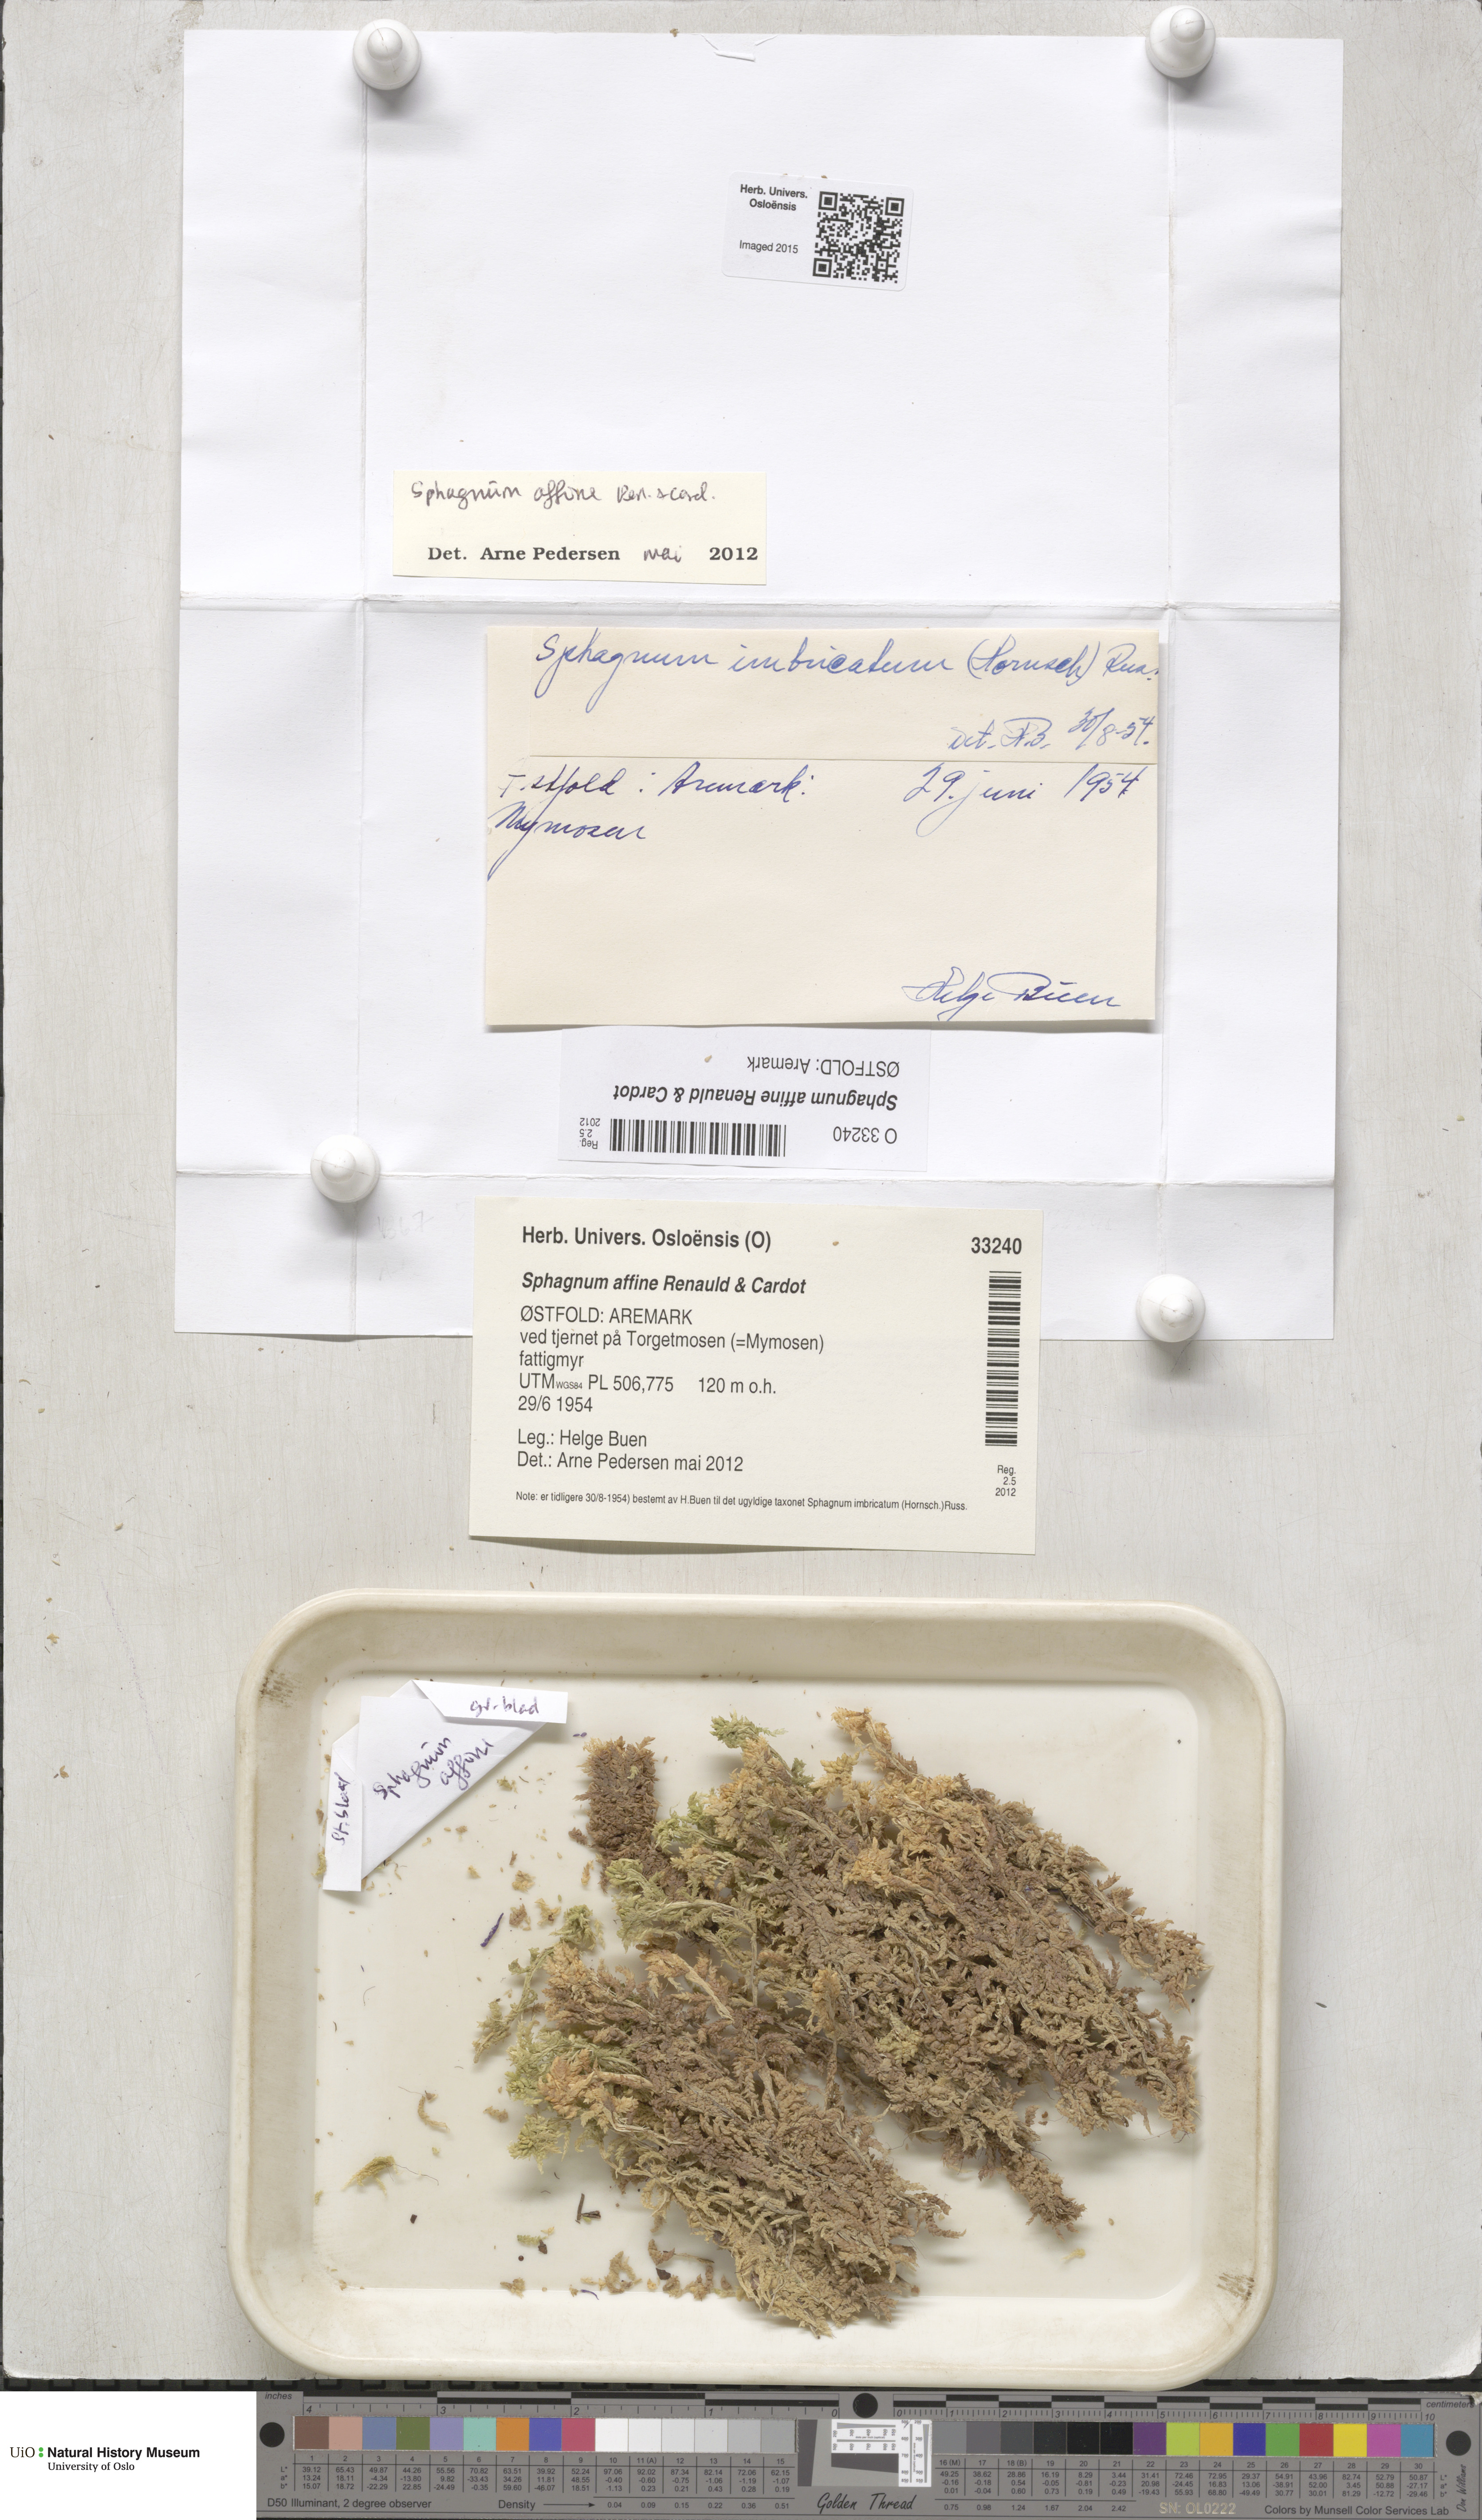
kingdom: Plantae
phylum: Bryophyta
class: Sphagnopsida
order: Sphagnales
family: Sphagnaceae
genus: Sphagnum
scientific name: Sphagnum affine
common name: Imbricate peat moss
